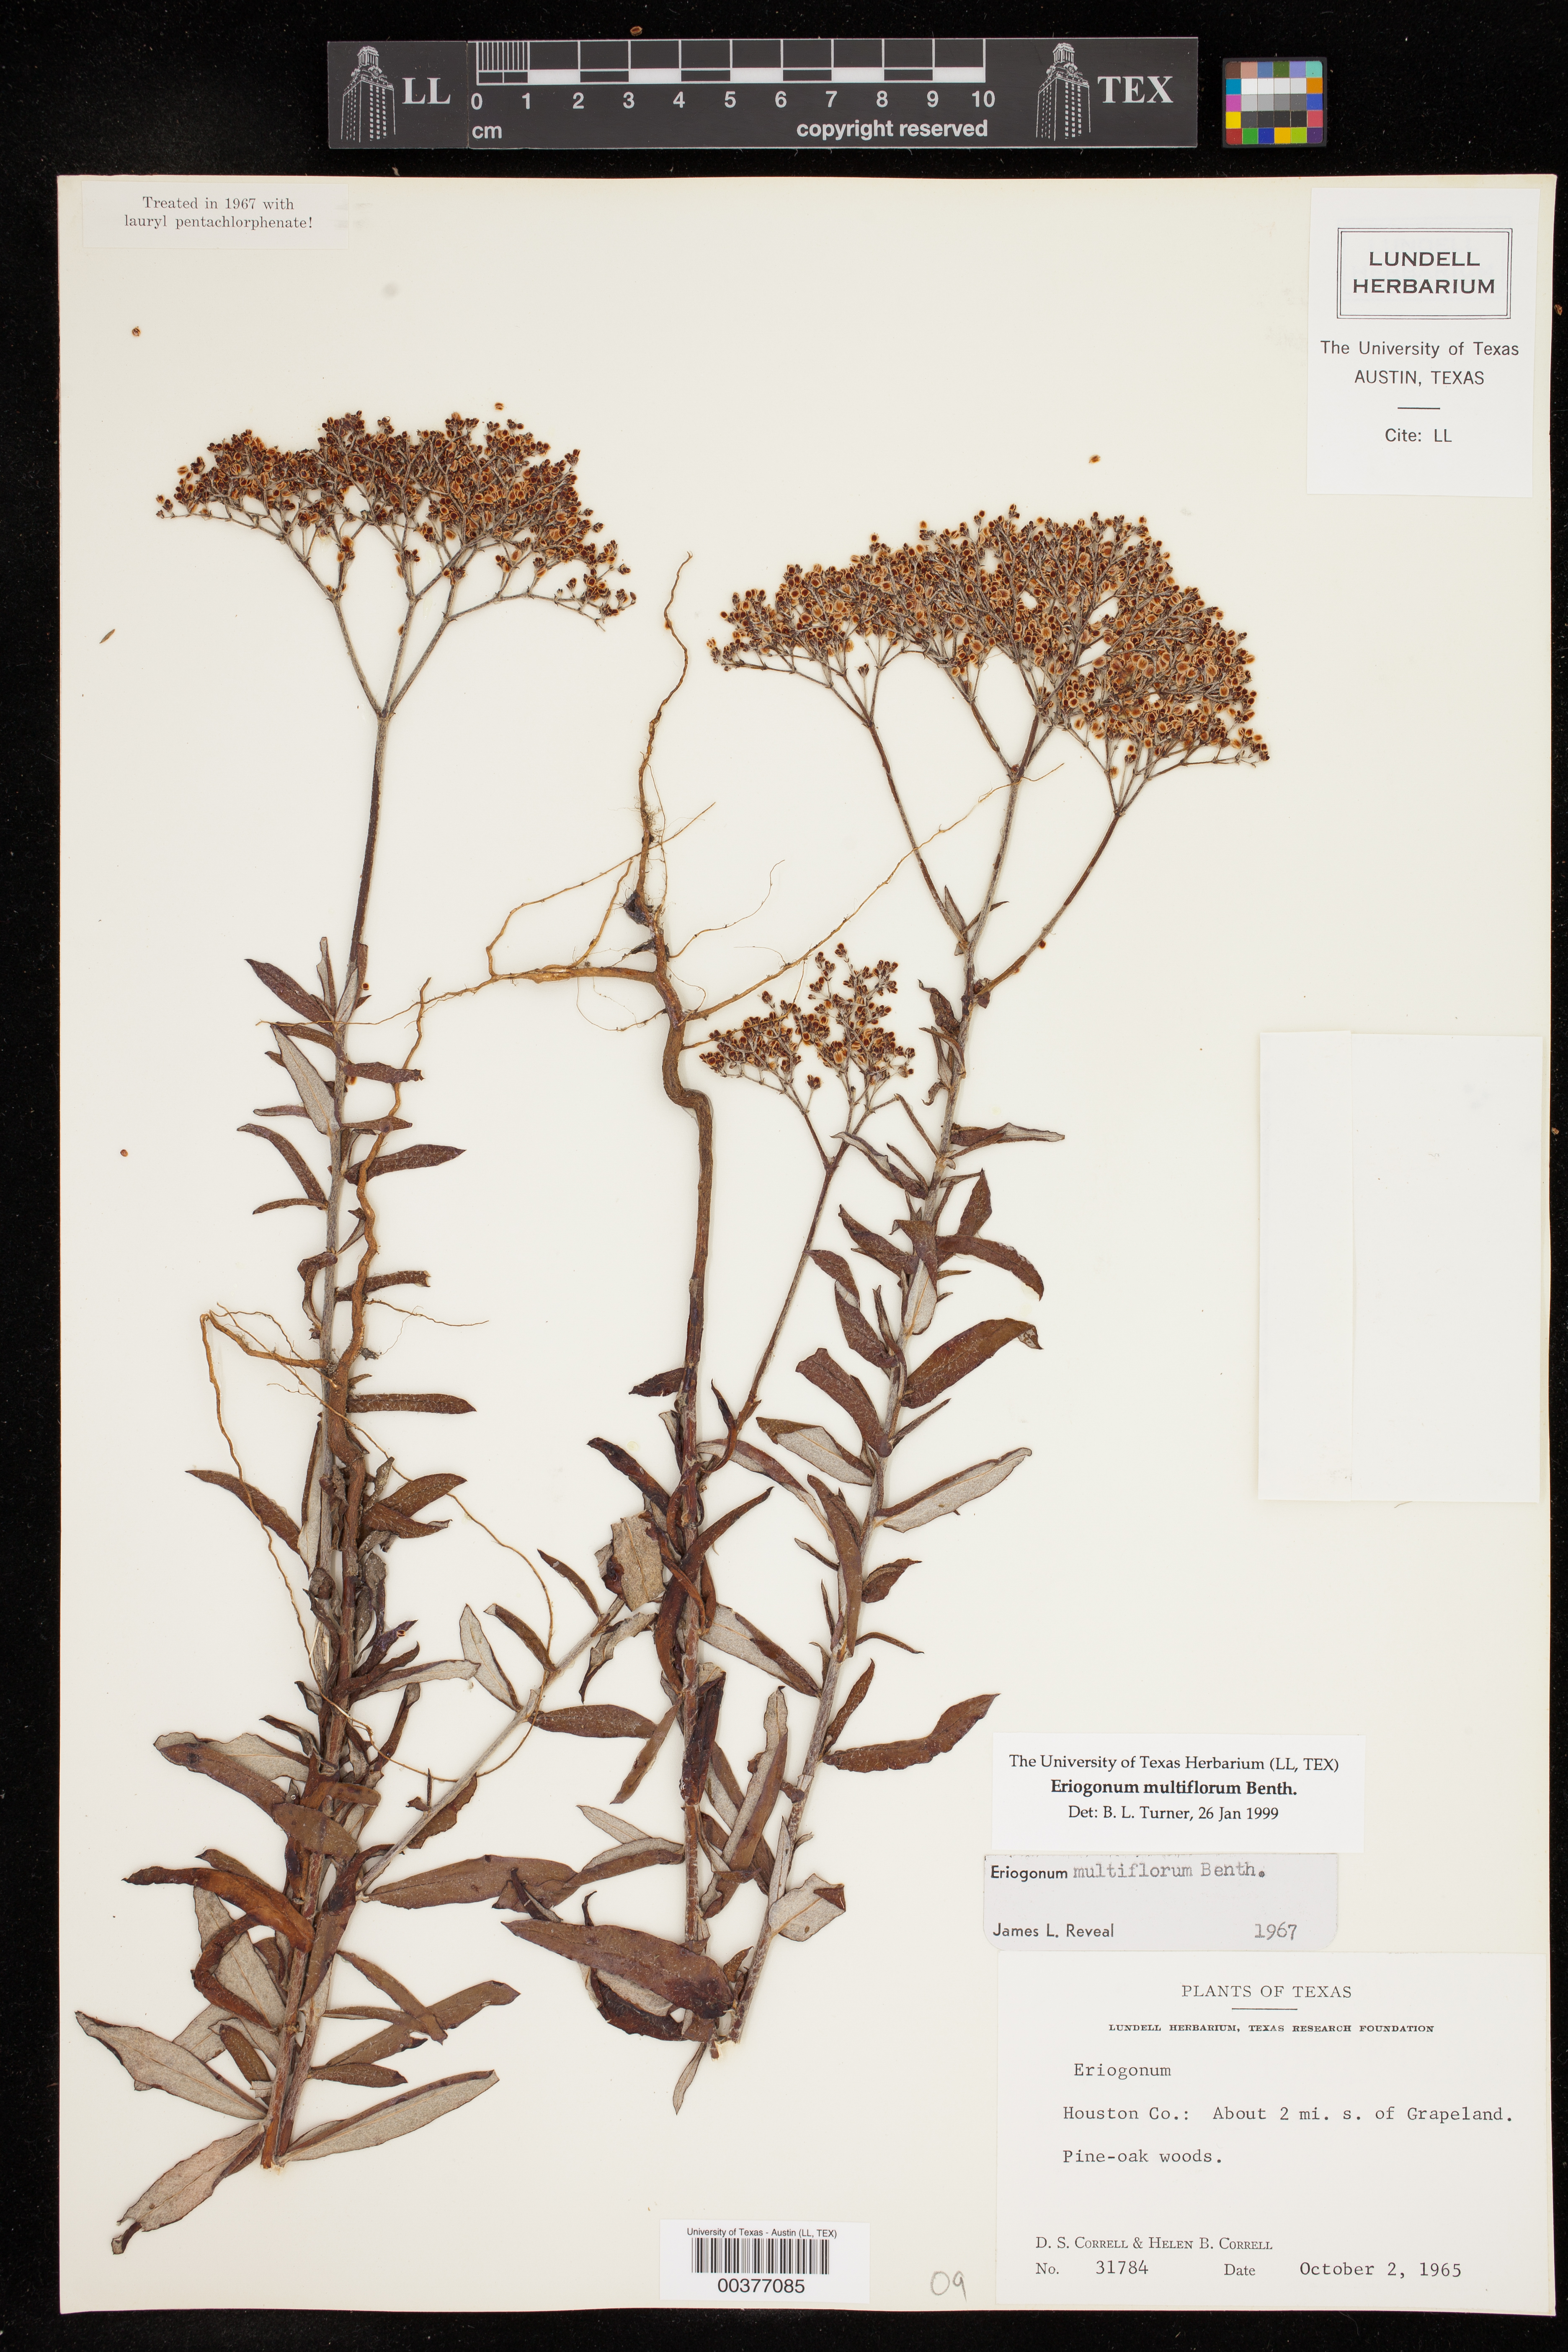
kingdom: Plantae
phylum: Tracheophyta
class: Magnoliopsida
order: Caryophyllales
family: Polygonaceae
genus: Eriogonum
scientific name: Eriogonum multiflorum
